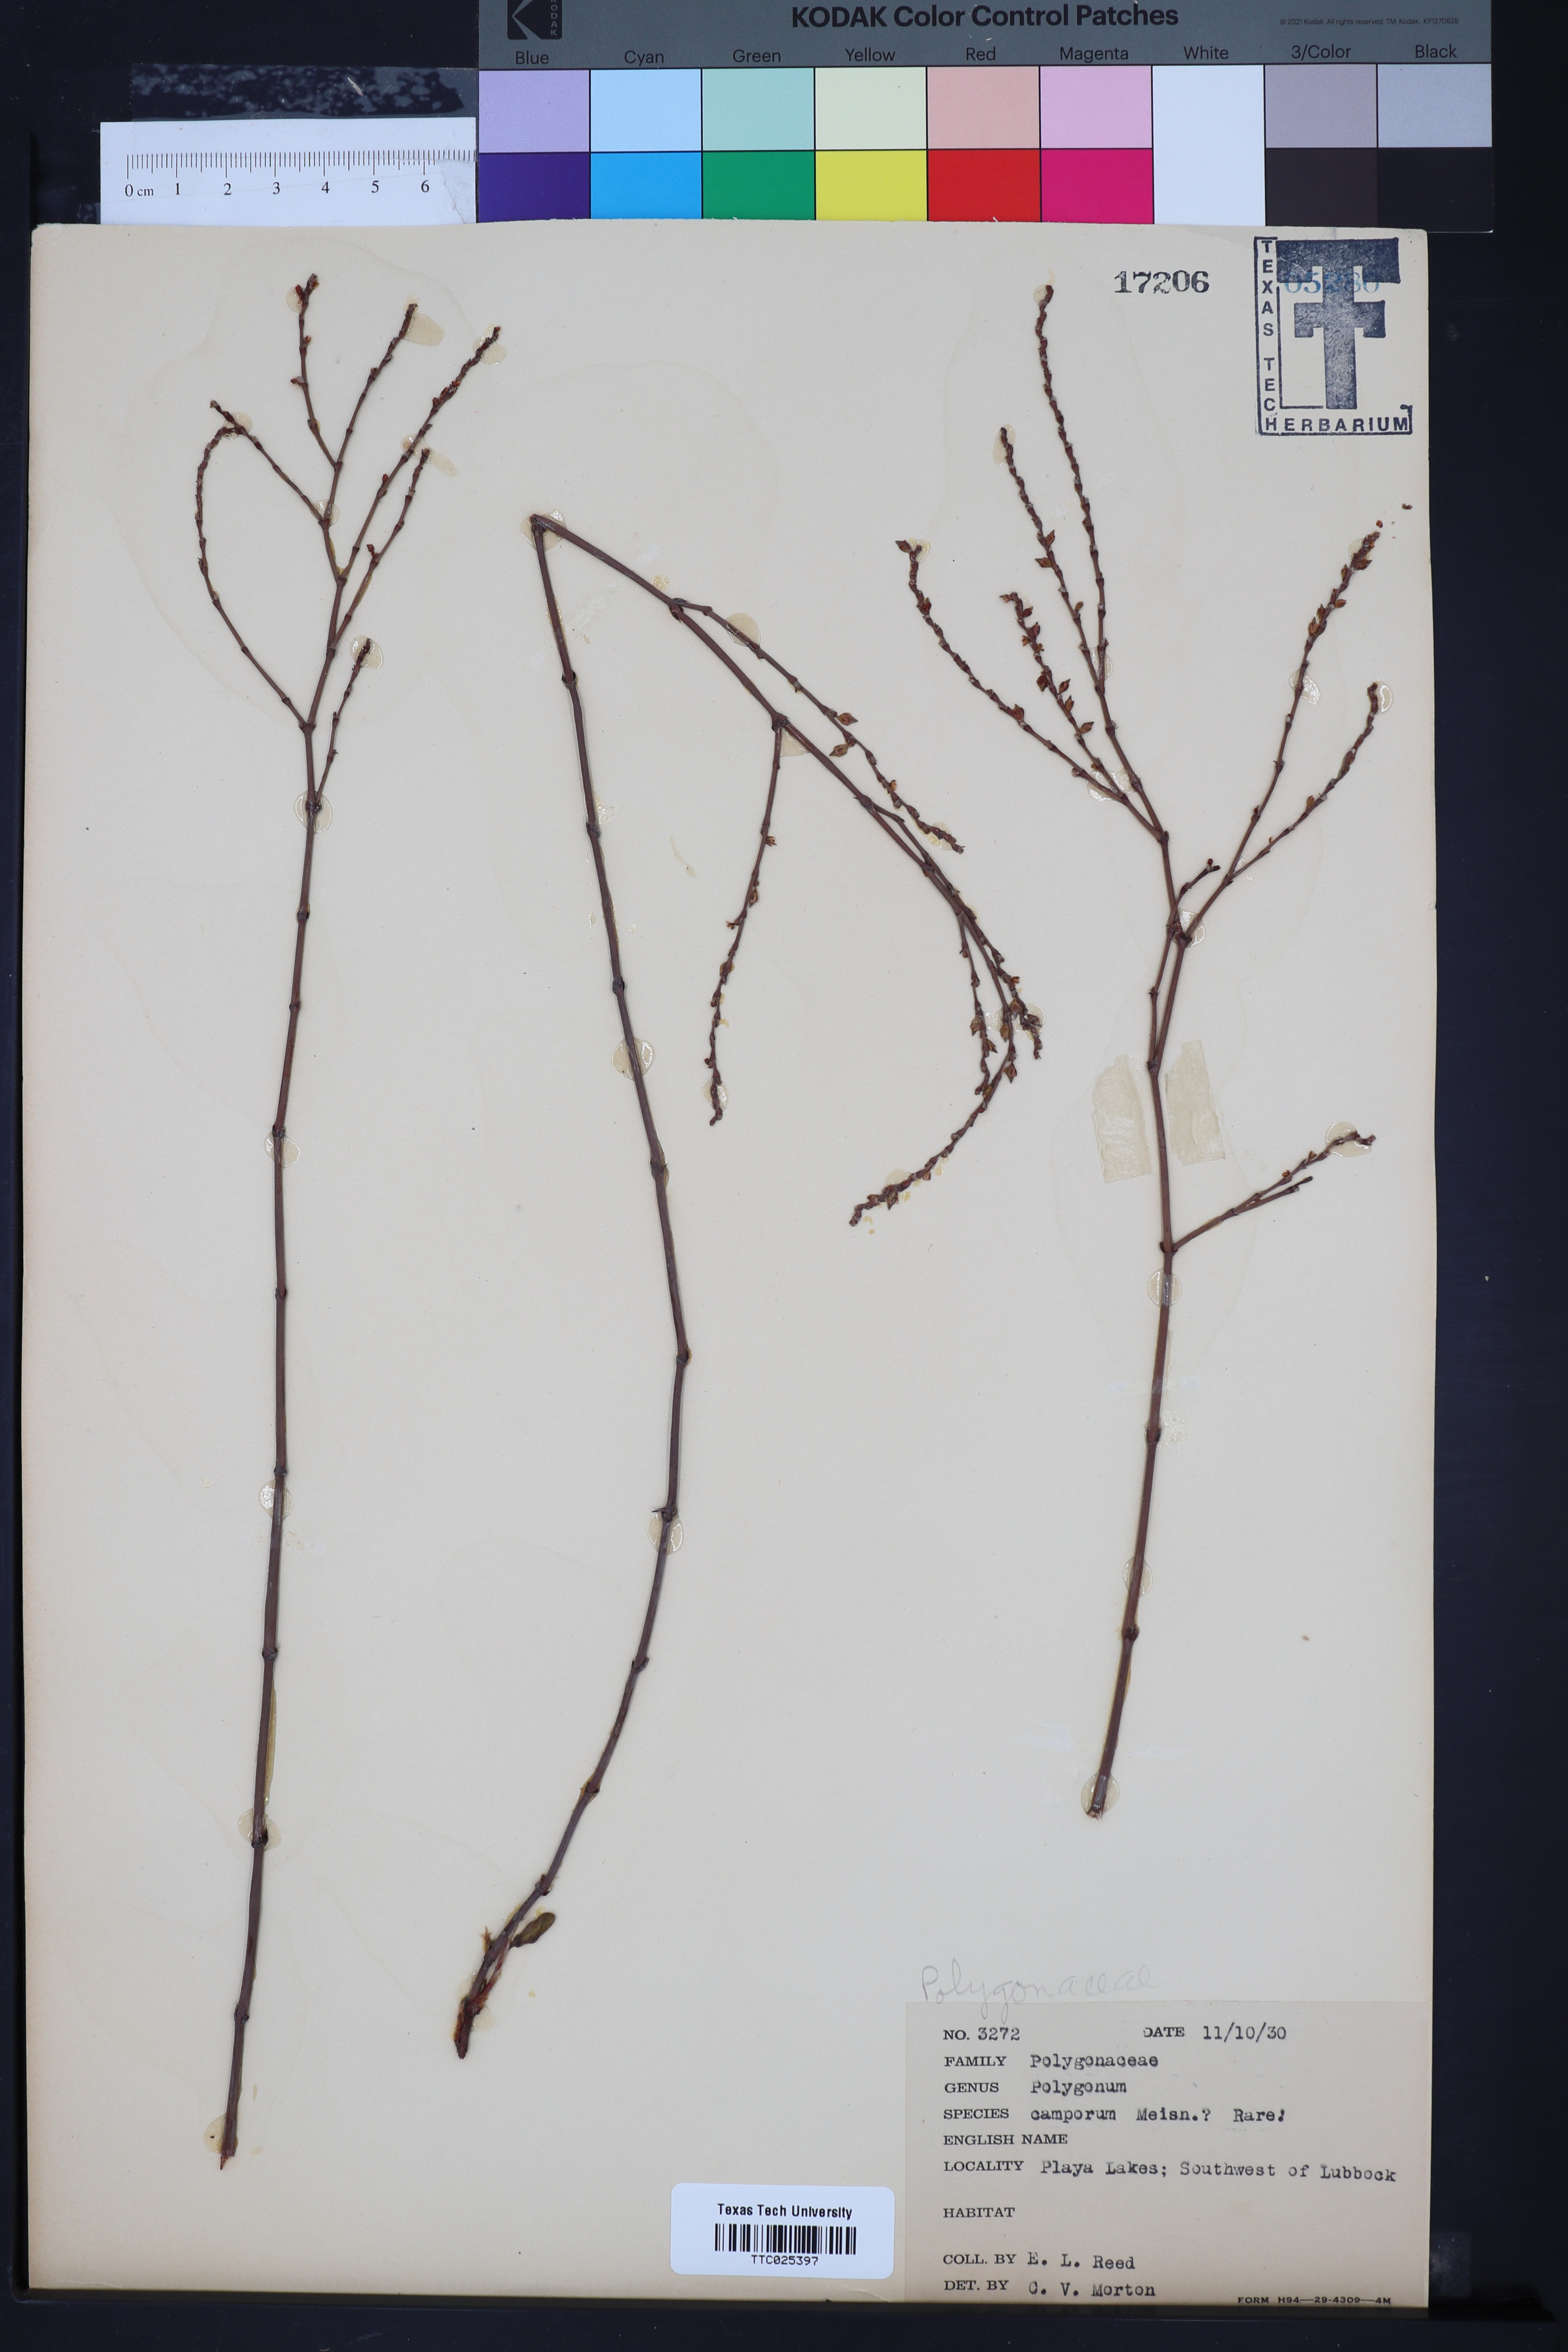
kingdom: Plantae
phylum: Tracheophyta
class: Magnoliopsida
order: Caryophyllales
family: Polygonaceae
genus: Polygonum
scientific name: Polygonum brasiliense
